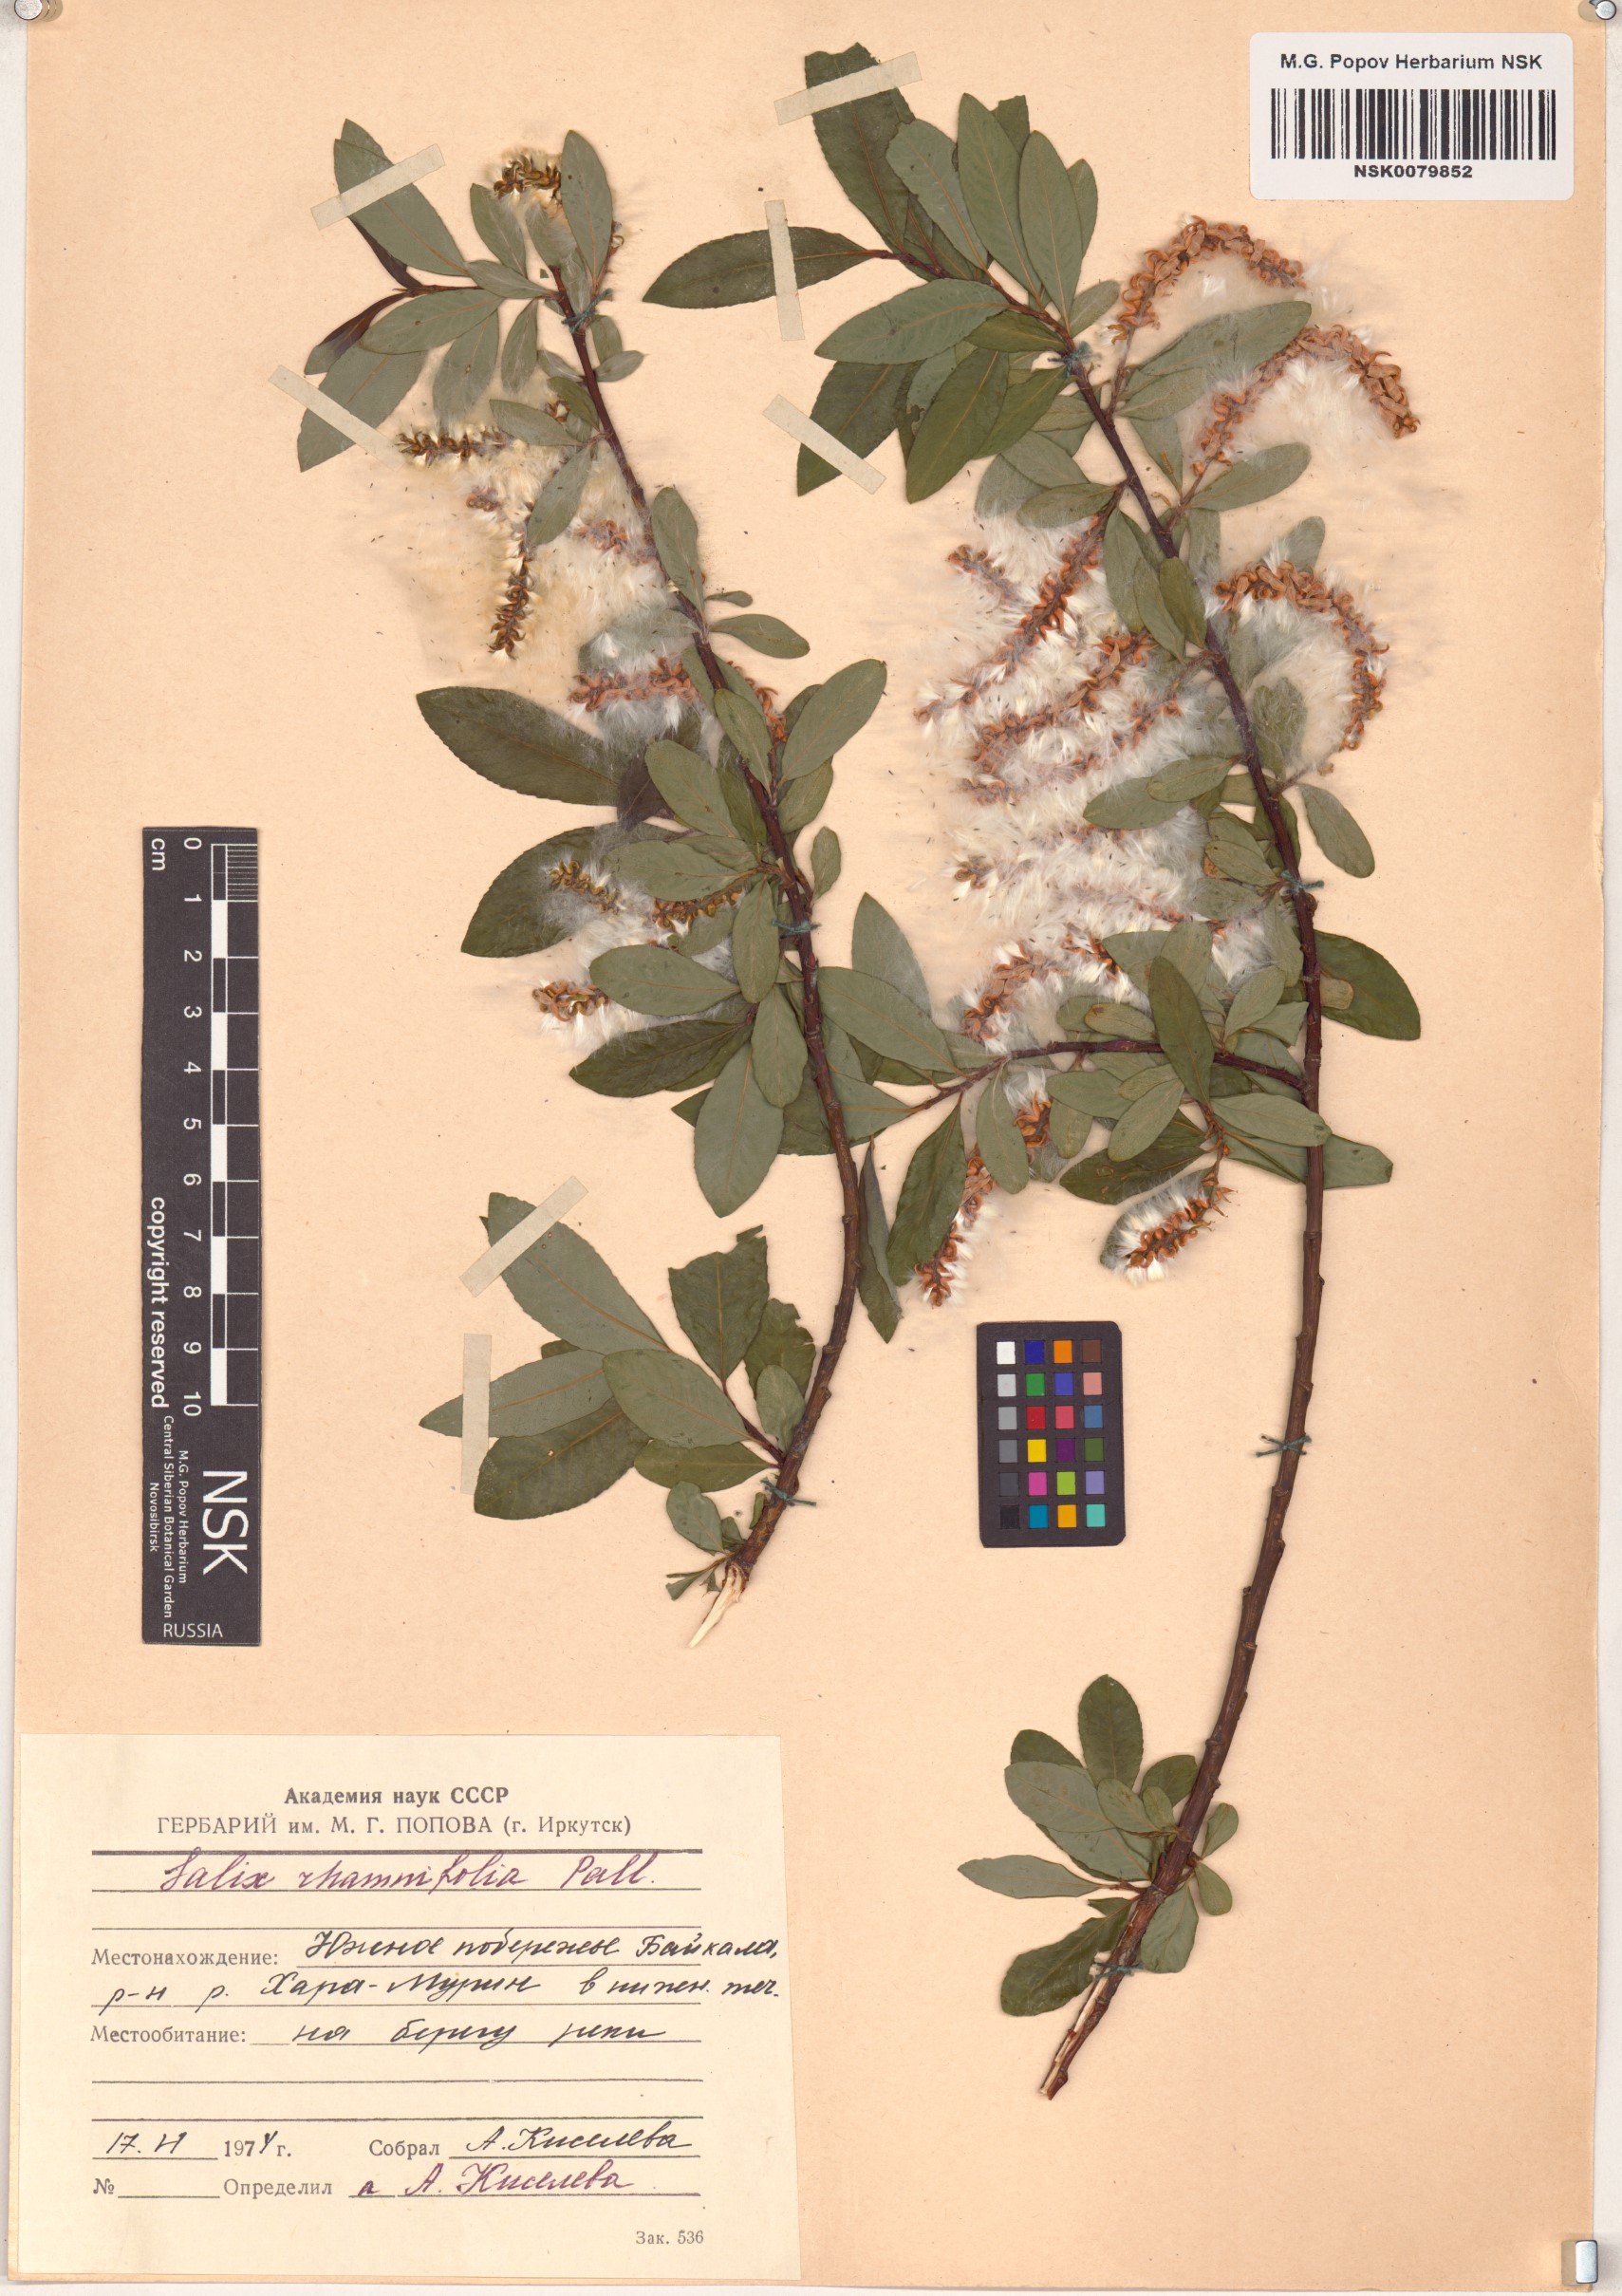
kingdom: Plantae
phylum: Tracheophyta
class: Magnoliopsida
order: Malpighiales
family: Salicaceae
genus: Salix
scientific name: Salix rhamnifolia
